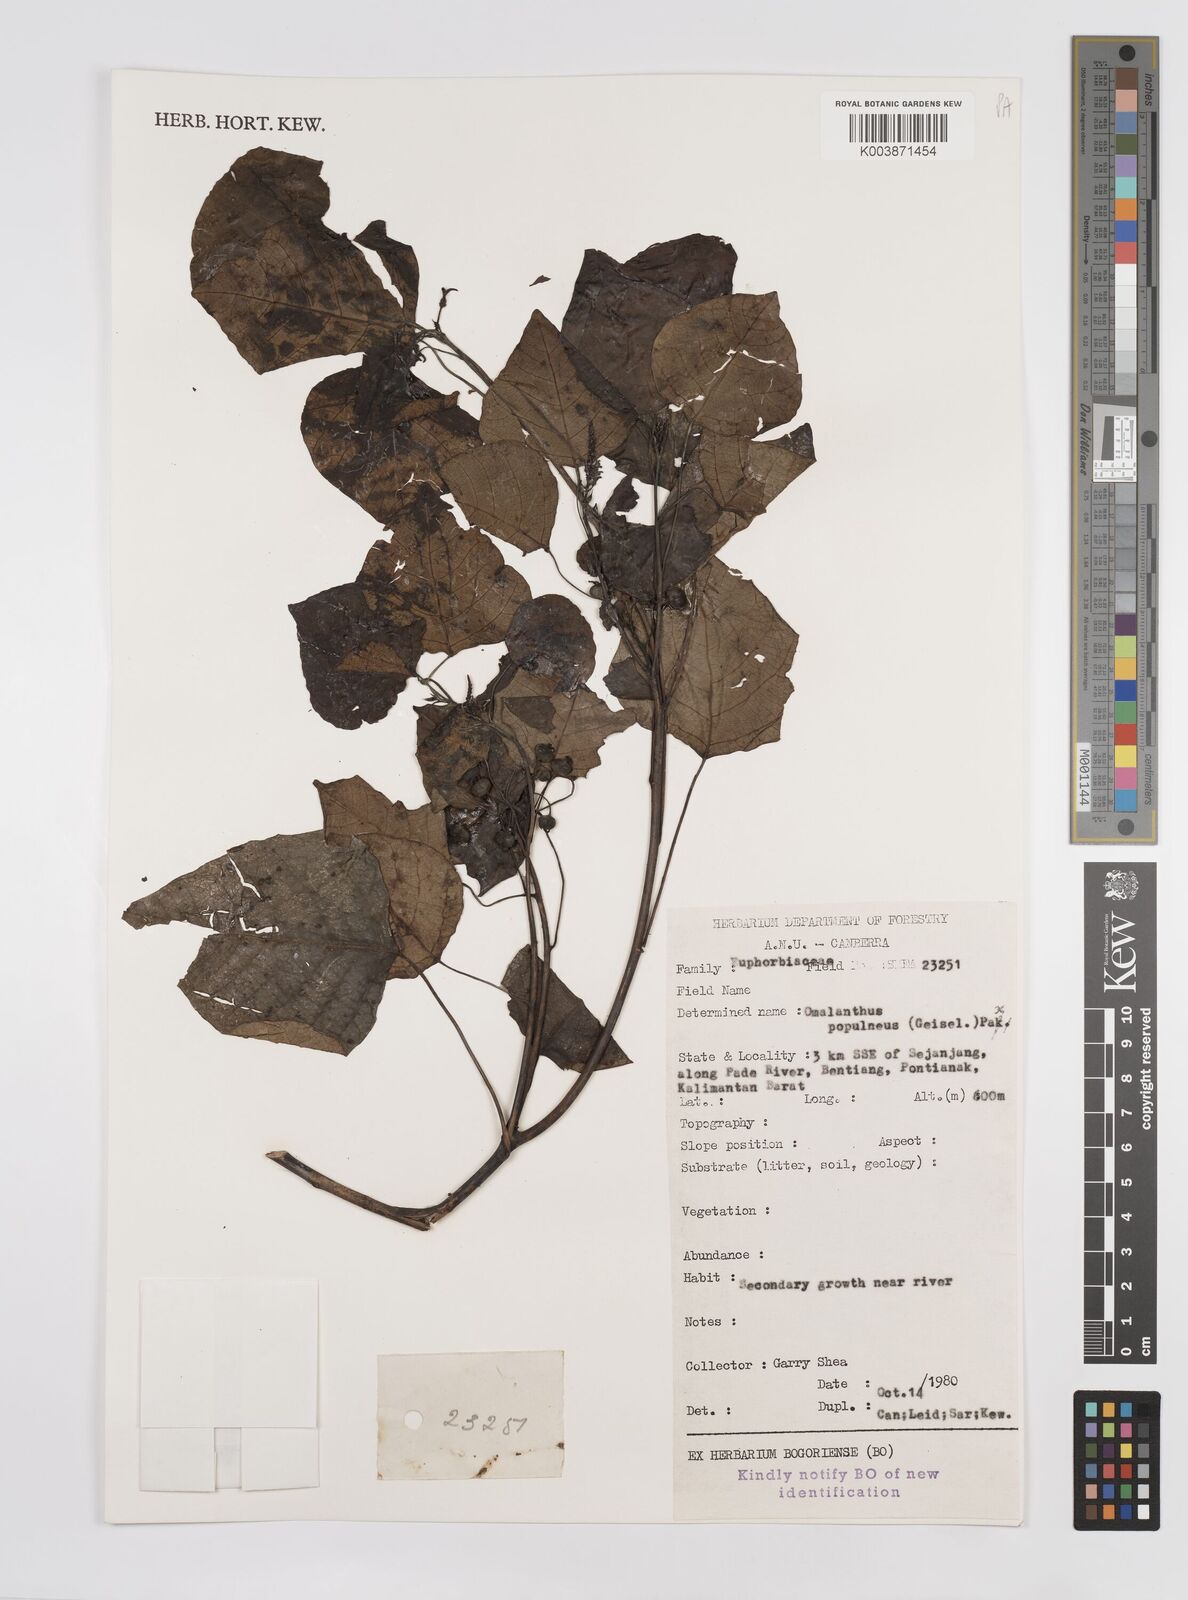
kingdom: Plantae
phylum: Tracheophyta
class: Magnoliopsida
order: Malpighiales
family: Euphorbiaceae
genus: Homalanthus
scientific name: Homalanthus populneus
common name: Spurge
